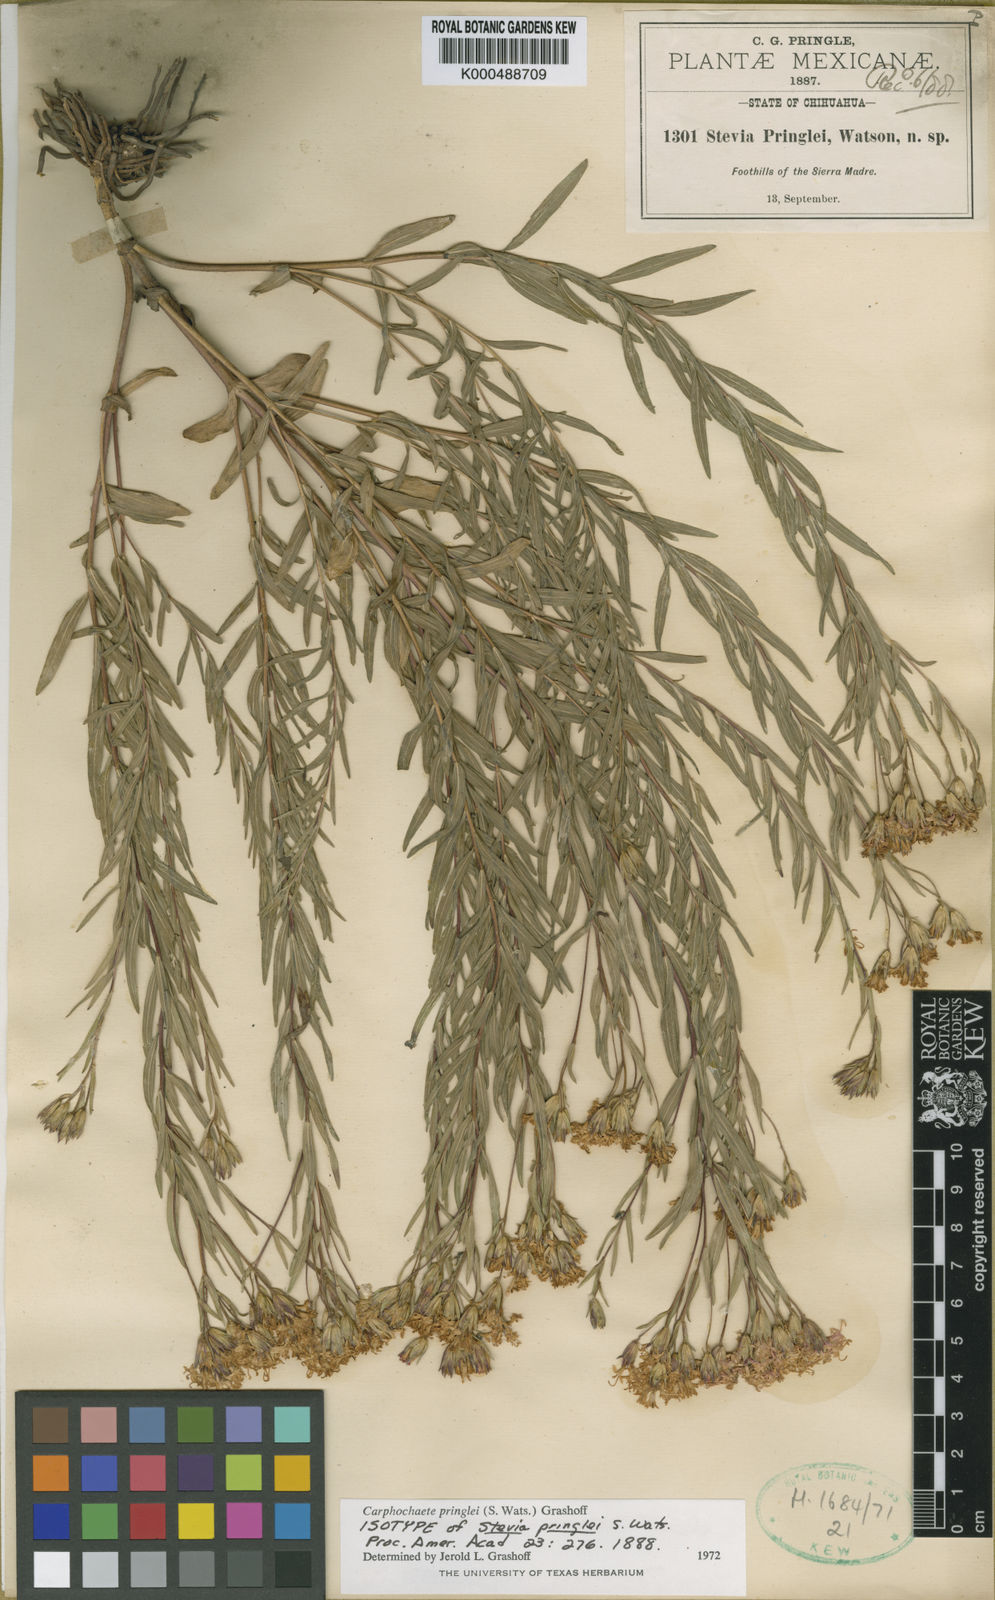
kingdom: Plantae
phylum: Tracheophyta
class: Magnoliopsida
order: Asterales
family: Asteraceae
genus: Carphochaete
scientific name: Carphochaete pringlei
